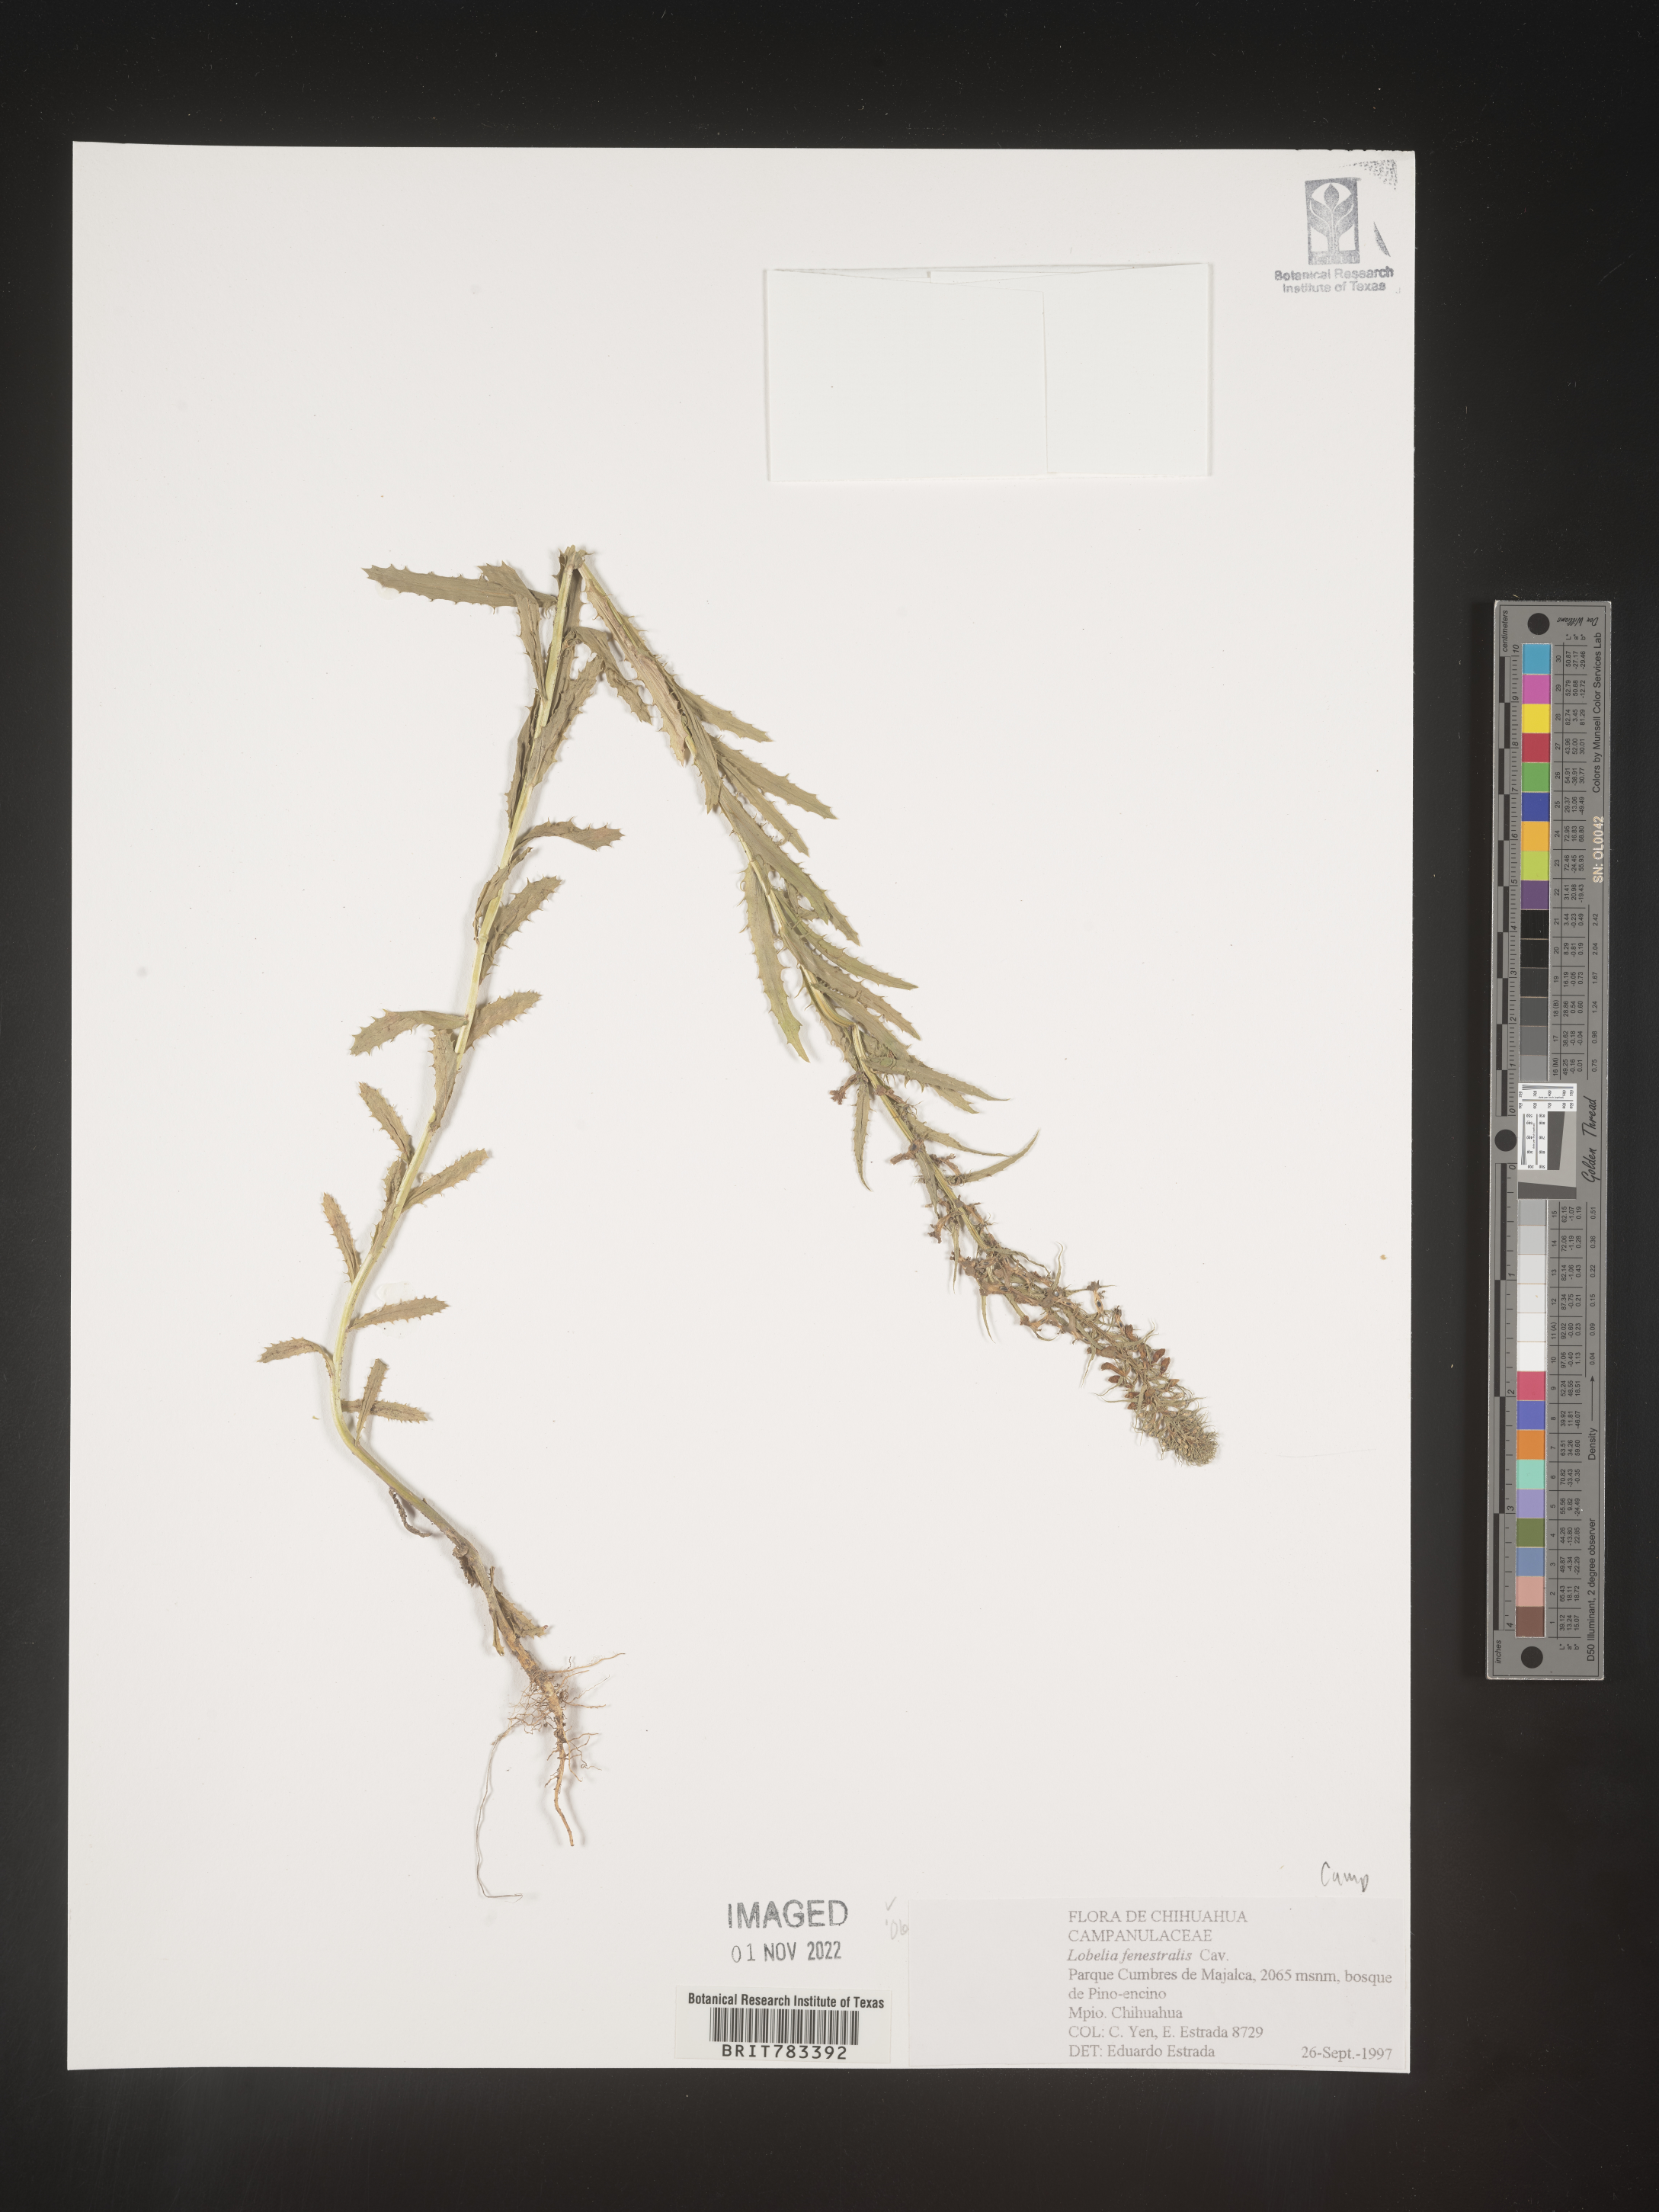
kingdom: Plantae
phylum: Tracheophyta
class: Magnoliopsida
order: Asterales
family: Campanulaceae
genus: Lobelia
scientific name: Lobelia
